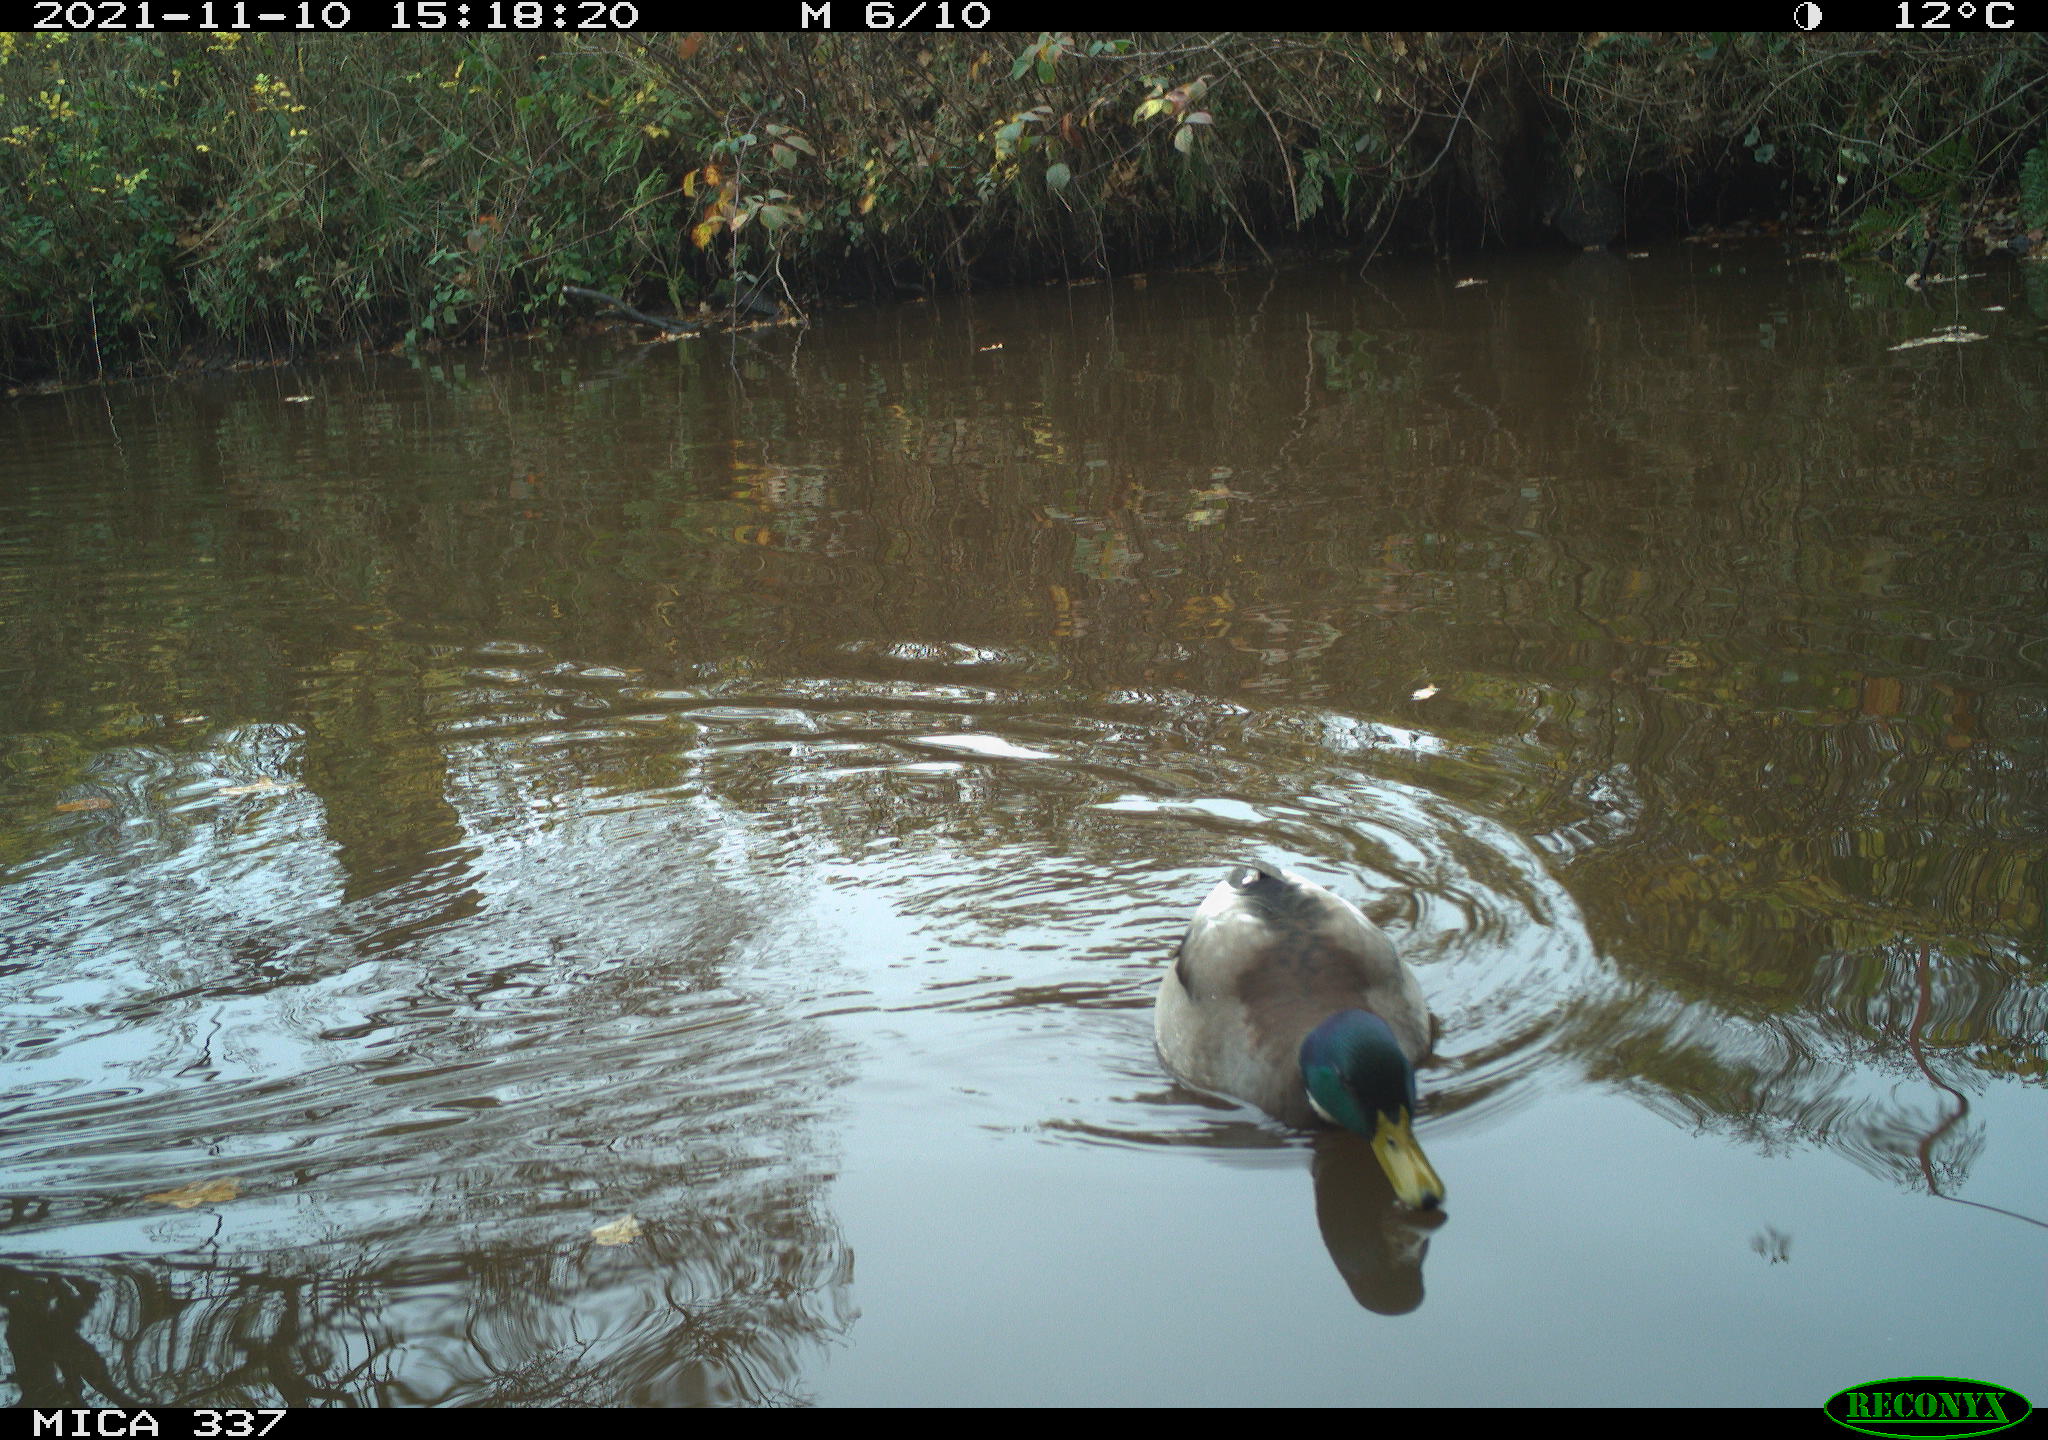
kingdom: Animalia
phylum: Chordata
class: Aves
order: Anseriformes
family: Anatidae
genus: Anas
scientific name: Anas platyrhynchos
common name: Mallard
